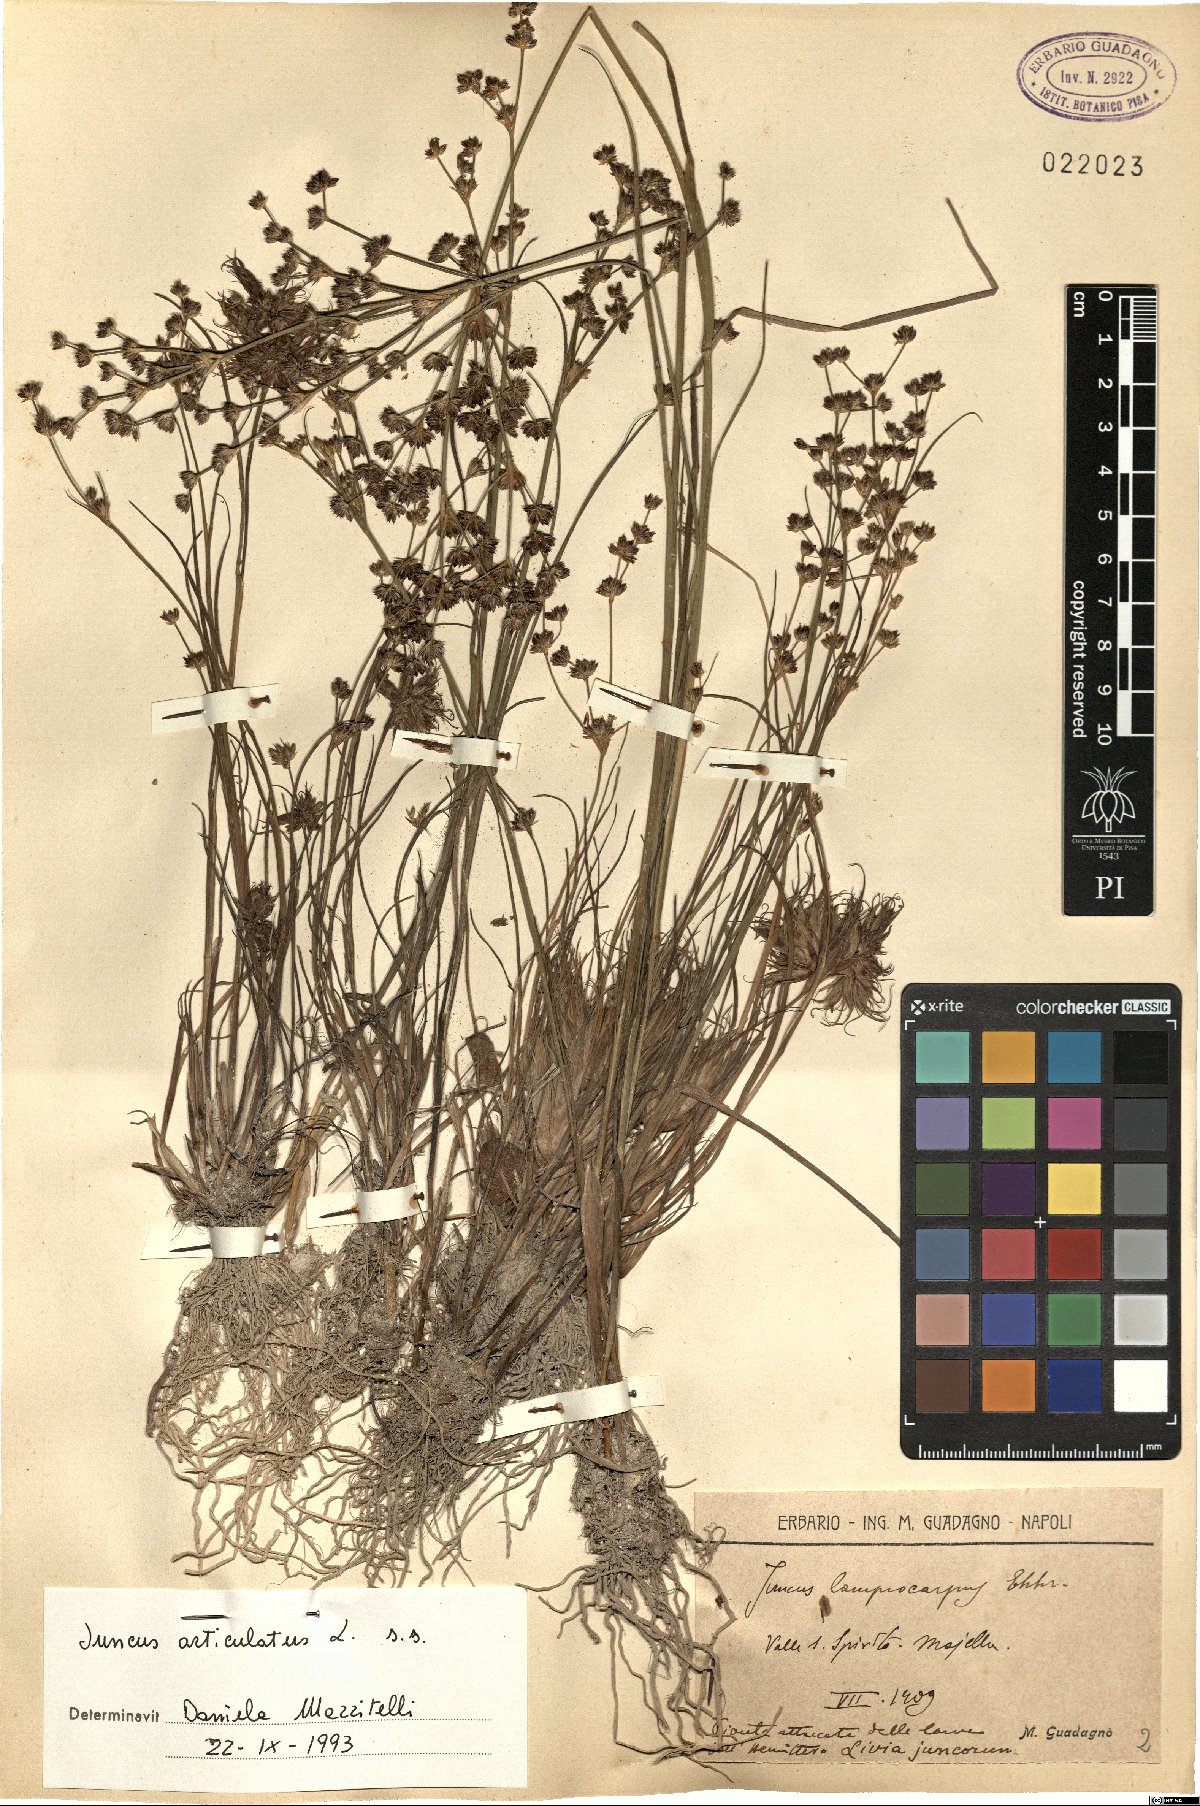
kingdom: Plantae
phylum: Tracheophyta
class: Liliopsida
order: Poales
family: Juncaceae
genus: Juncus
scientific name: Juncus articulatus
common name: Jointed rush
